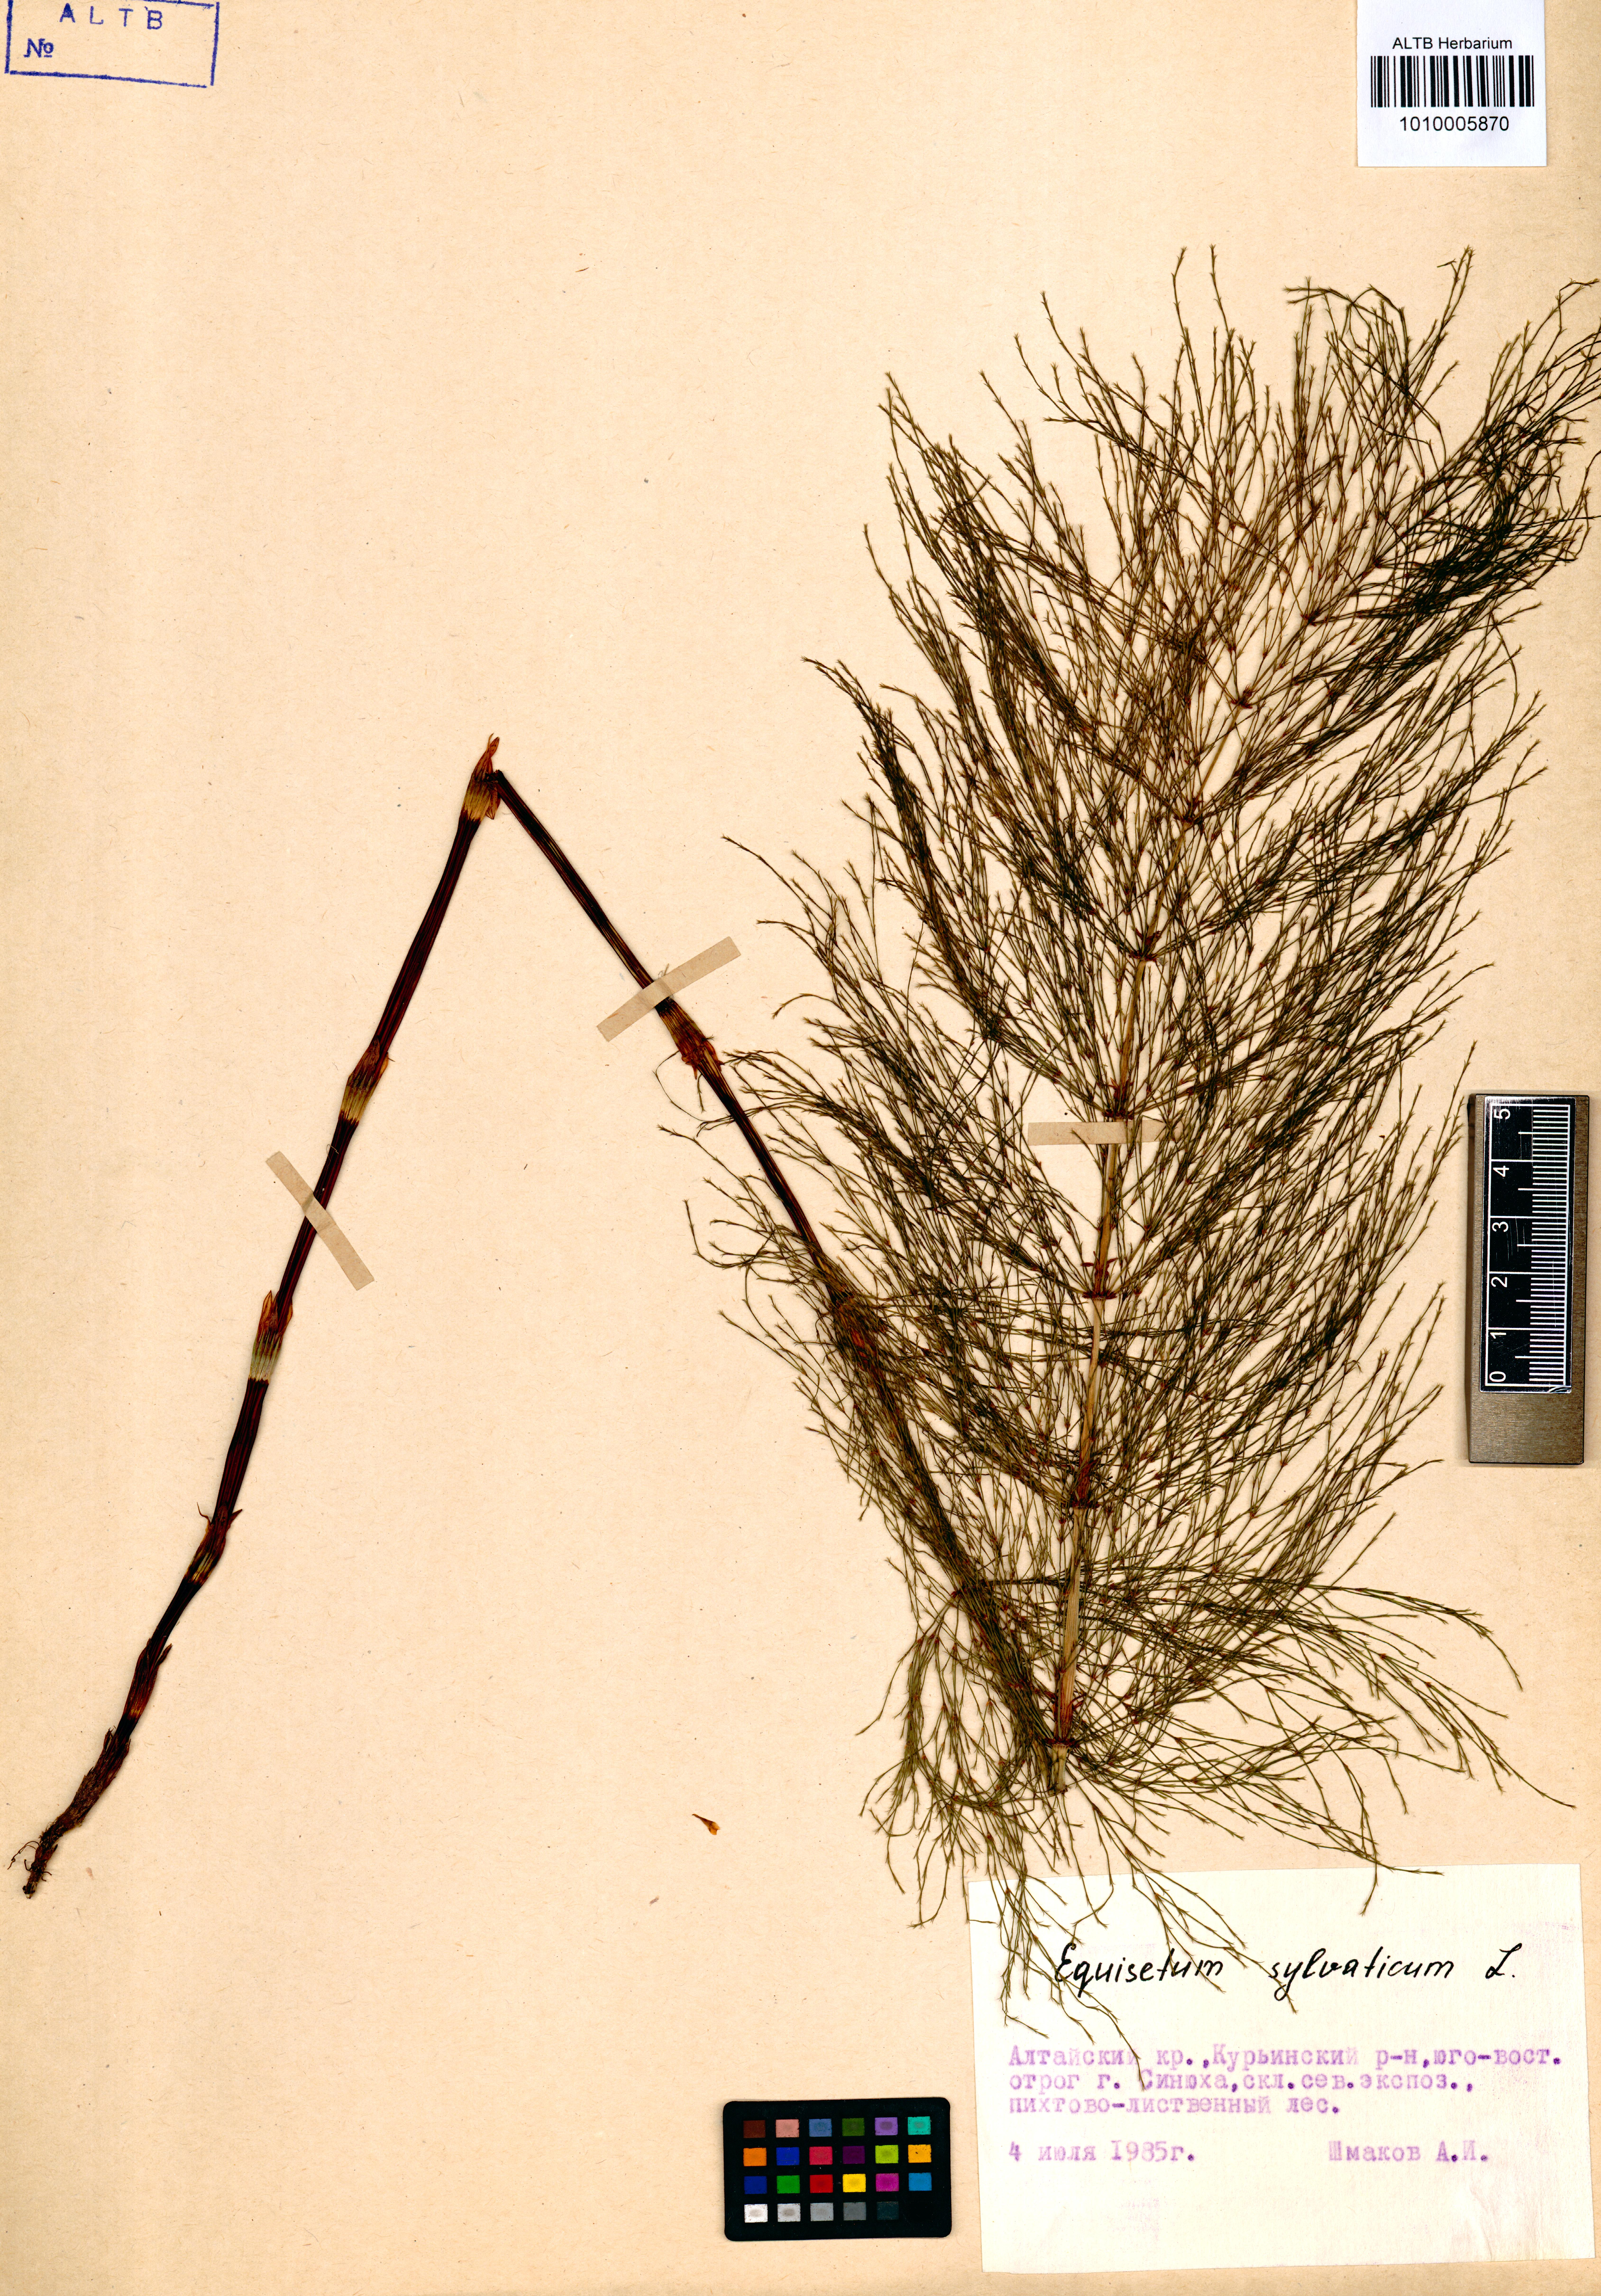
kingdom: Plantae
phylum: Tracheophyta
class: Polypodiopsida
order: Equisetales
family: Equisetaceae
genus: Equisetum
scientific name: Equisetum sylvaticum
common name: Wood horsetail
